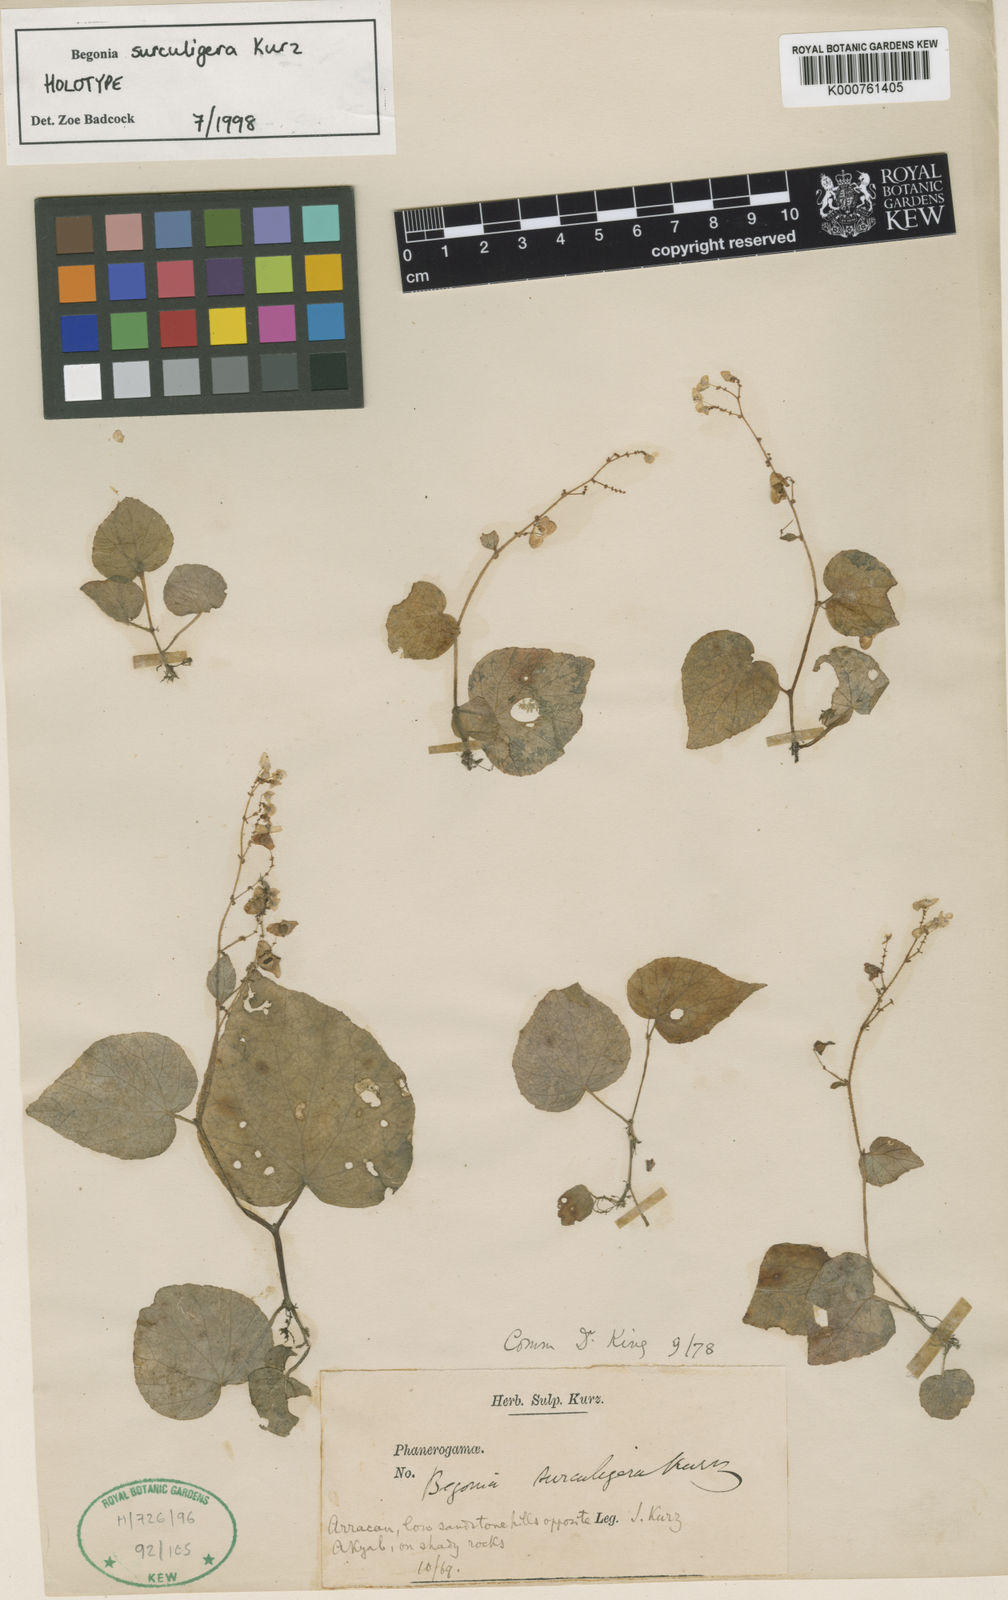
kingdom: Plantae
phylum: Tracheophyta
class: Magnoliopsida
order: Cucurbitales
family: Begoniaceae
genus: Begonia
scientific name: Begonia surculigera
